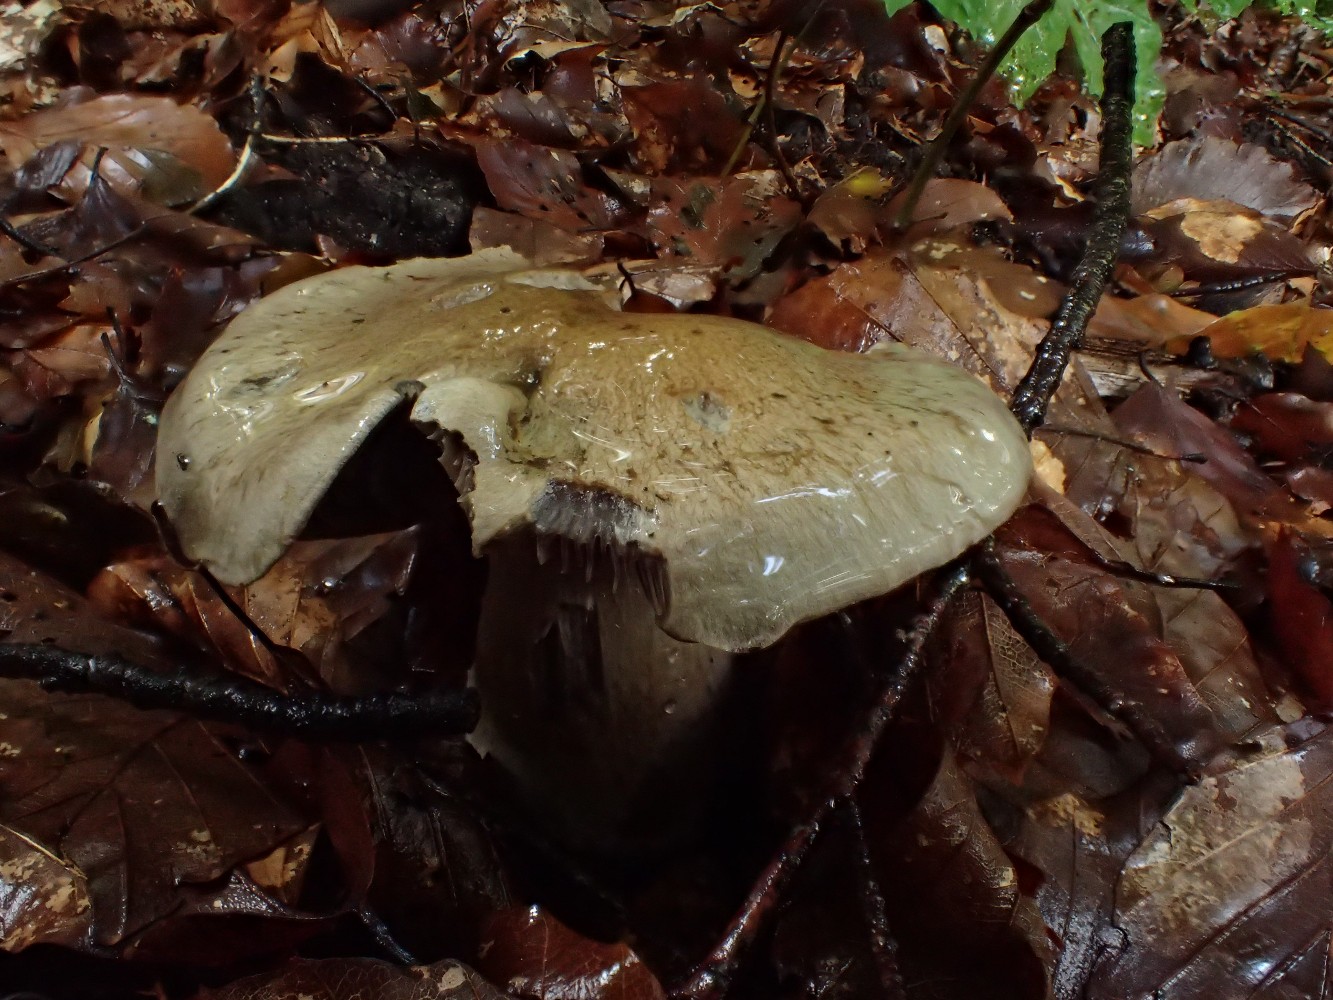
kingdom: Fungi
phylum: Basidiomycota
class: Agaricomycetes
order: Agaricales
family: Cortinariaceae
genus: Cortinarius
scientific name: Cortinarius
